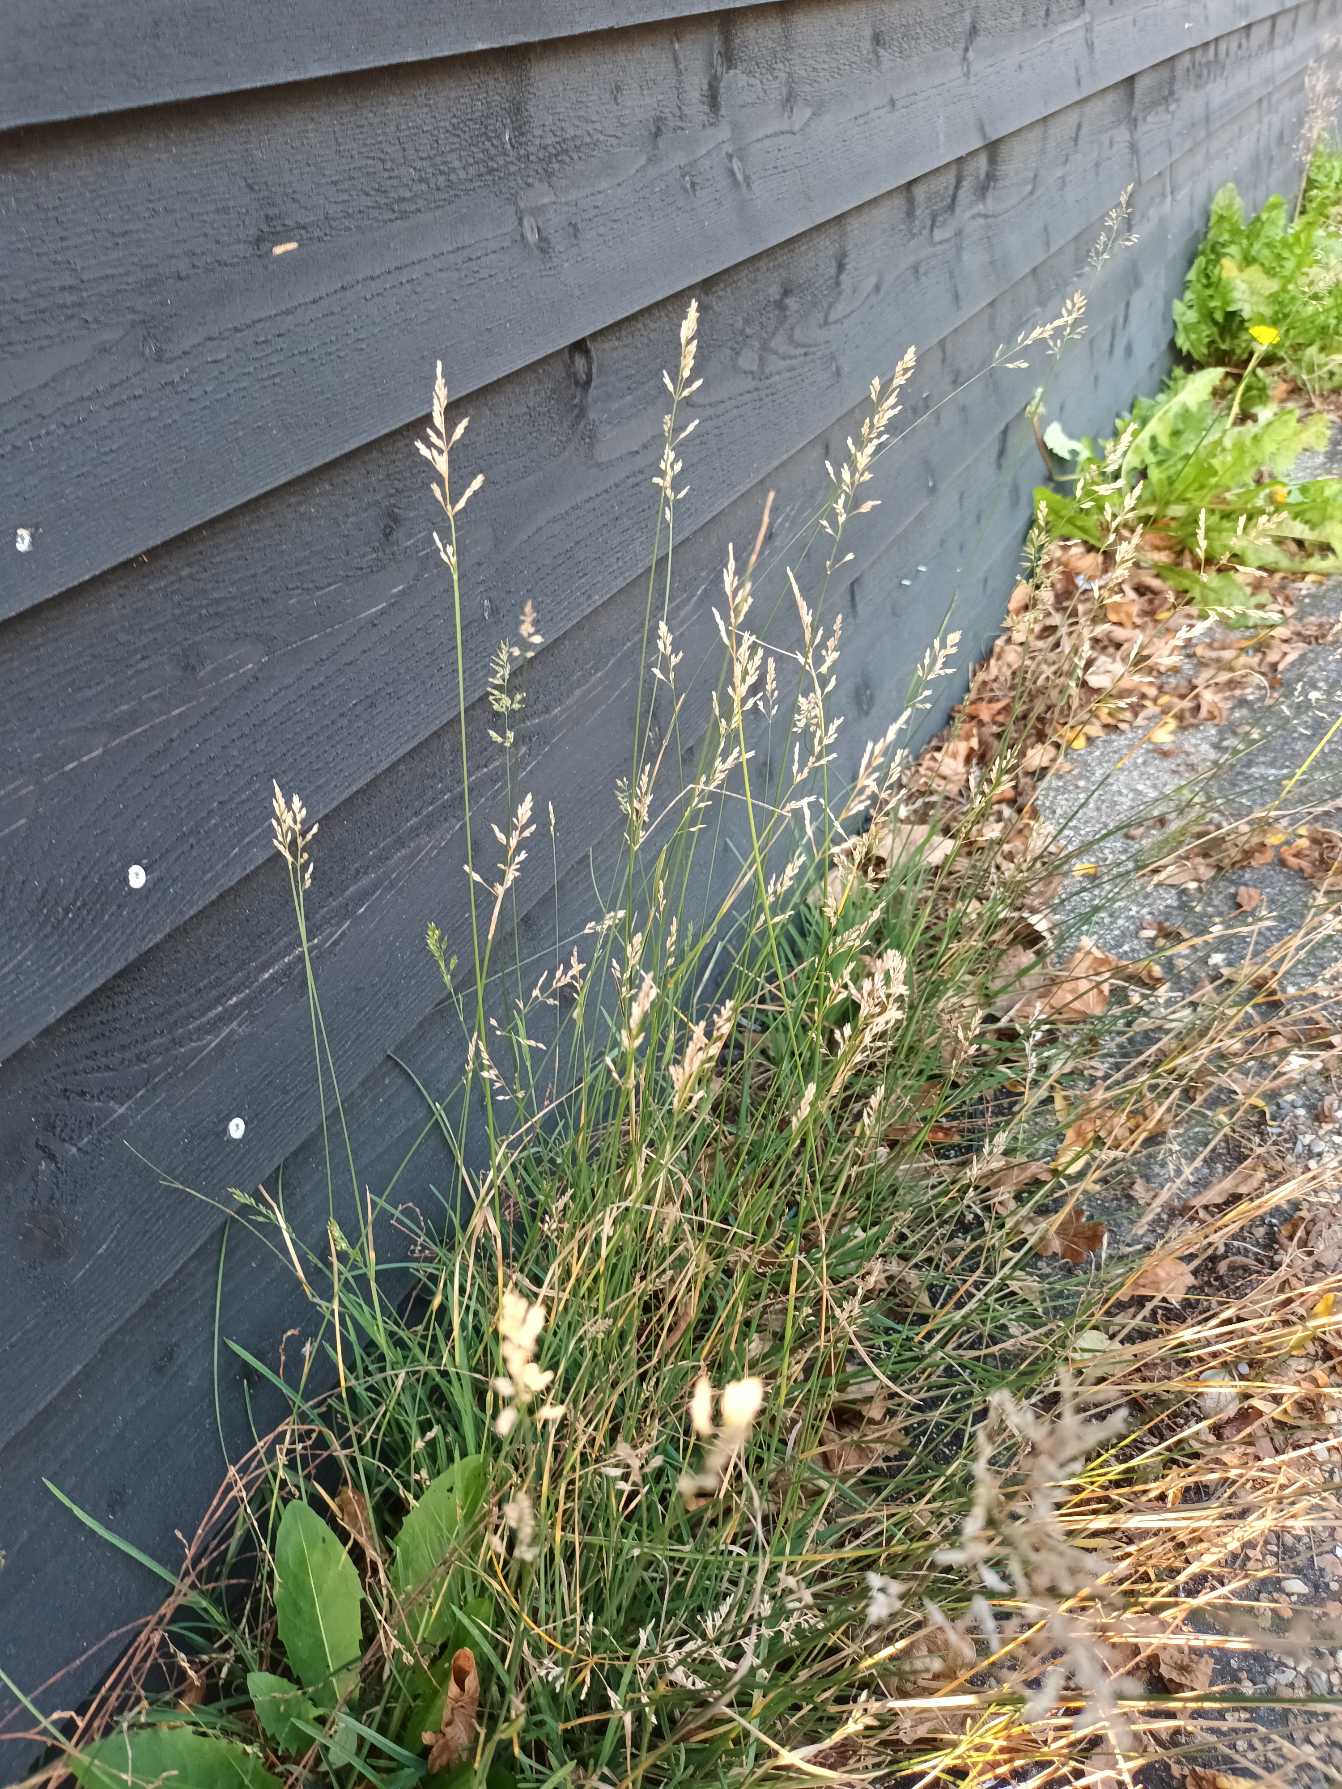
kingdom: Plantae
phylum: Tracheophyta
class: Liliopsida
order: Poales
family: Poaceae
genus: Poa
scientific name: Poa compressa
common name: Fladstrået rapgræs
